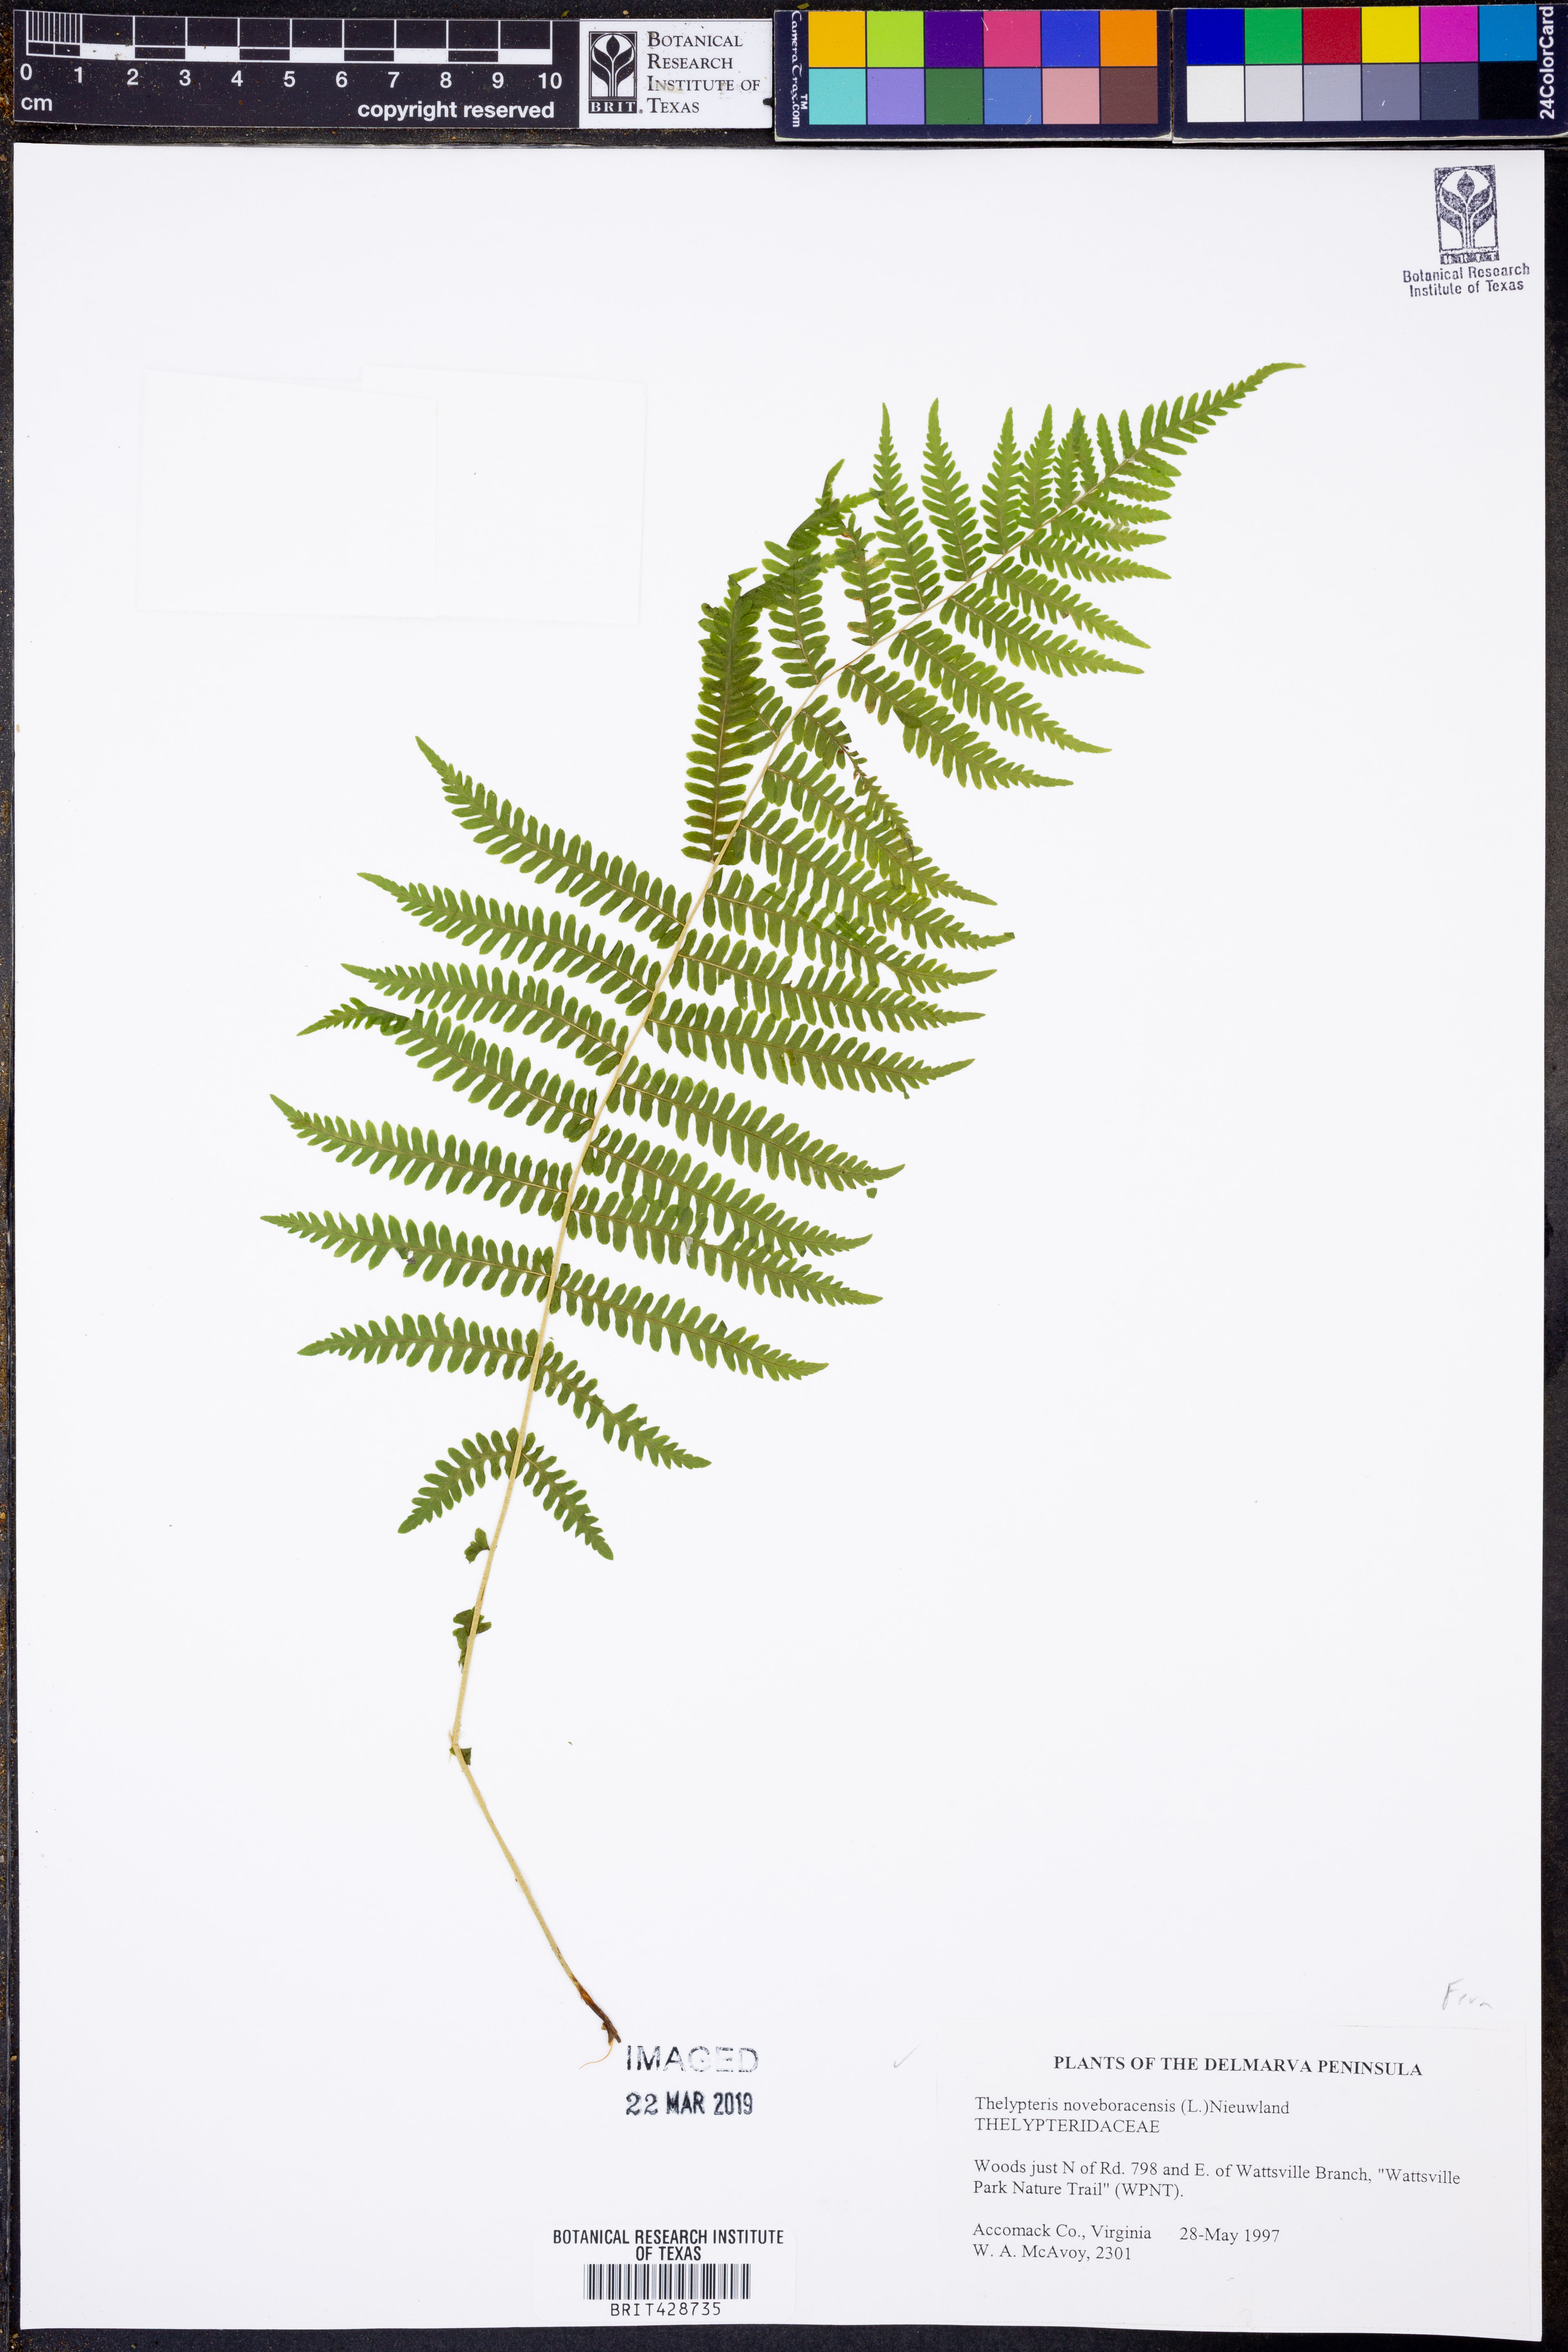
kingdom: Plantae
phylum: Tracheophyta
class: Polypodiopsida
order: Polypodiales
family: Thelypteridaceae
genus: Amauropelta
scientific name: Amauropelta noveboracensis
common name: New york fern
